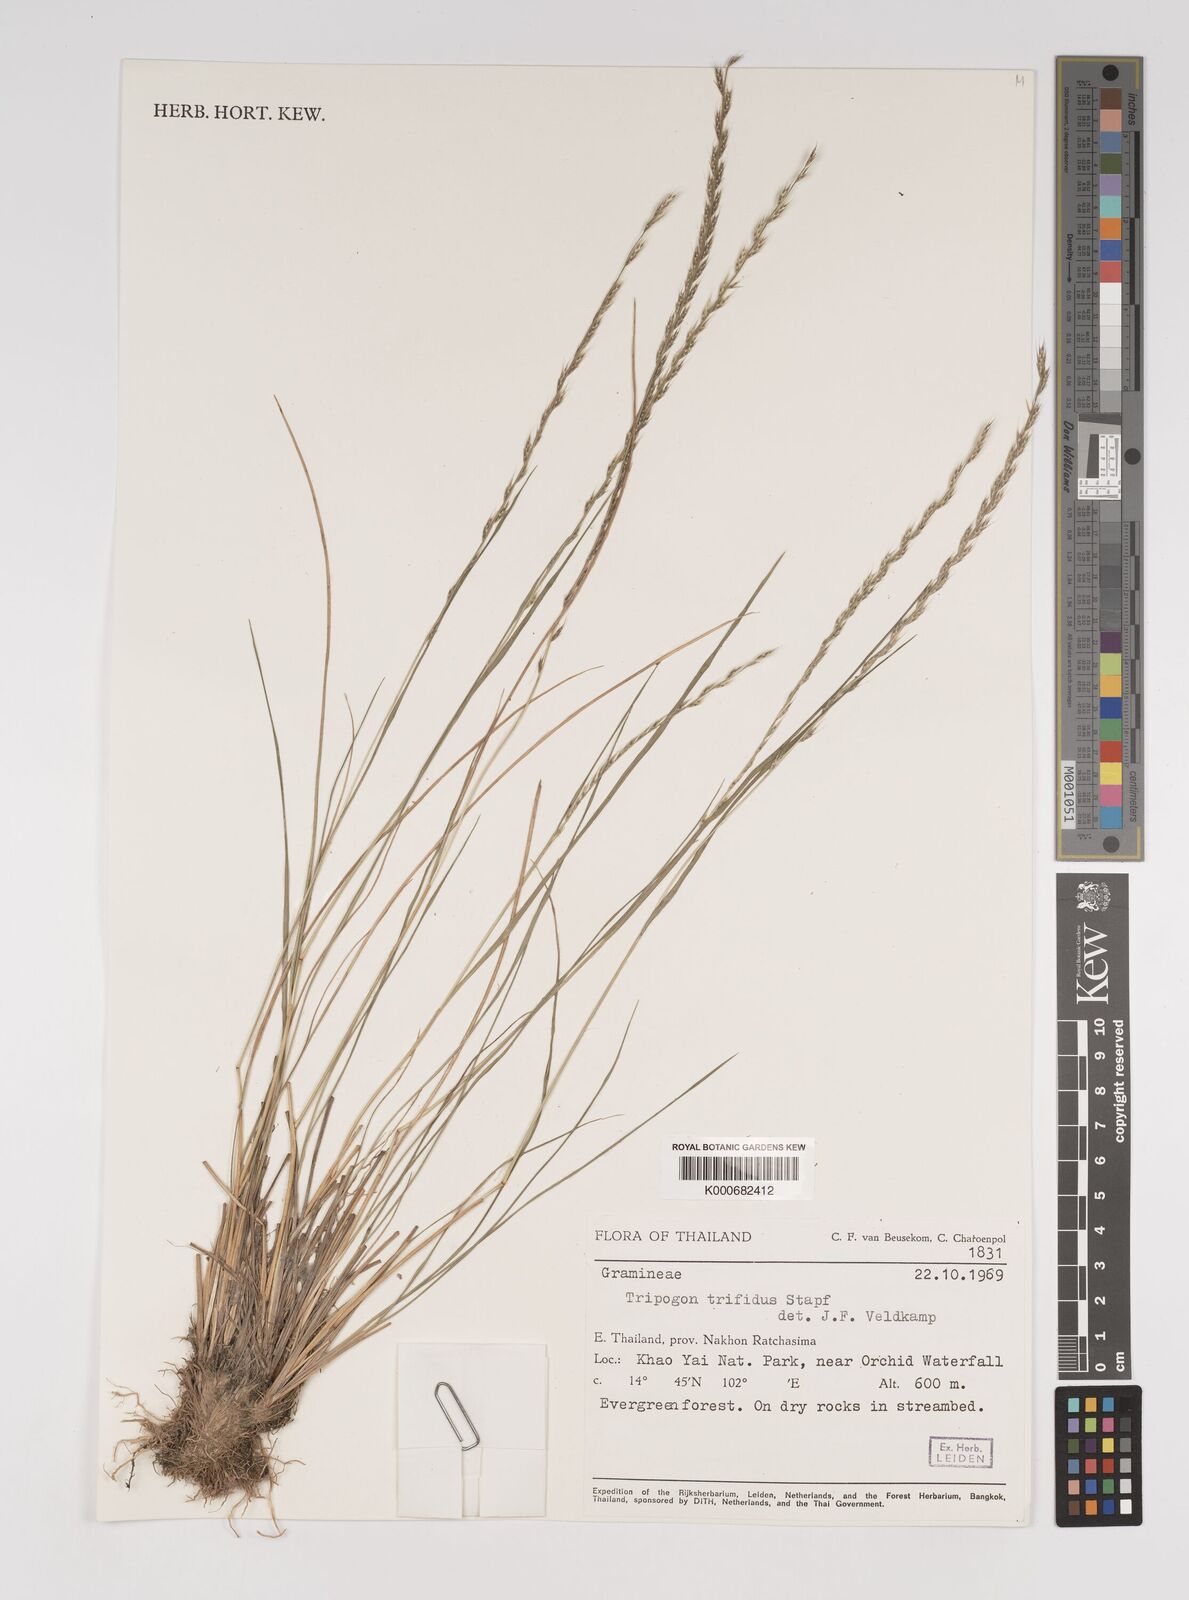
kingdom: Plantae
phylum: Tracheophyta
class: Liliopsida
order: Poales
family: Poaceae
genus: Tripogon
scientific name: Tripogon trifidus
